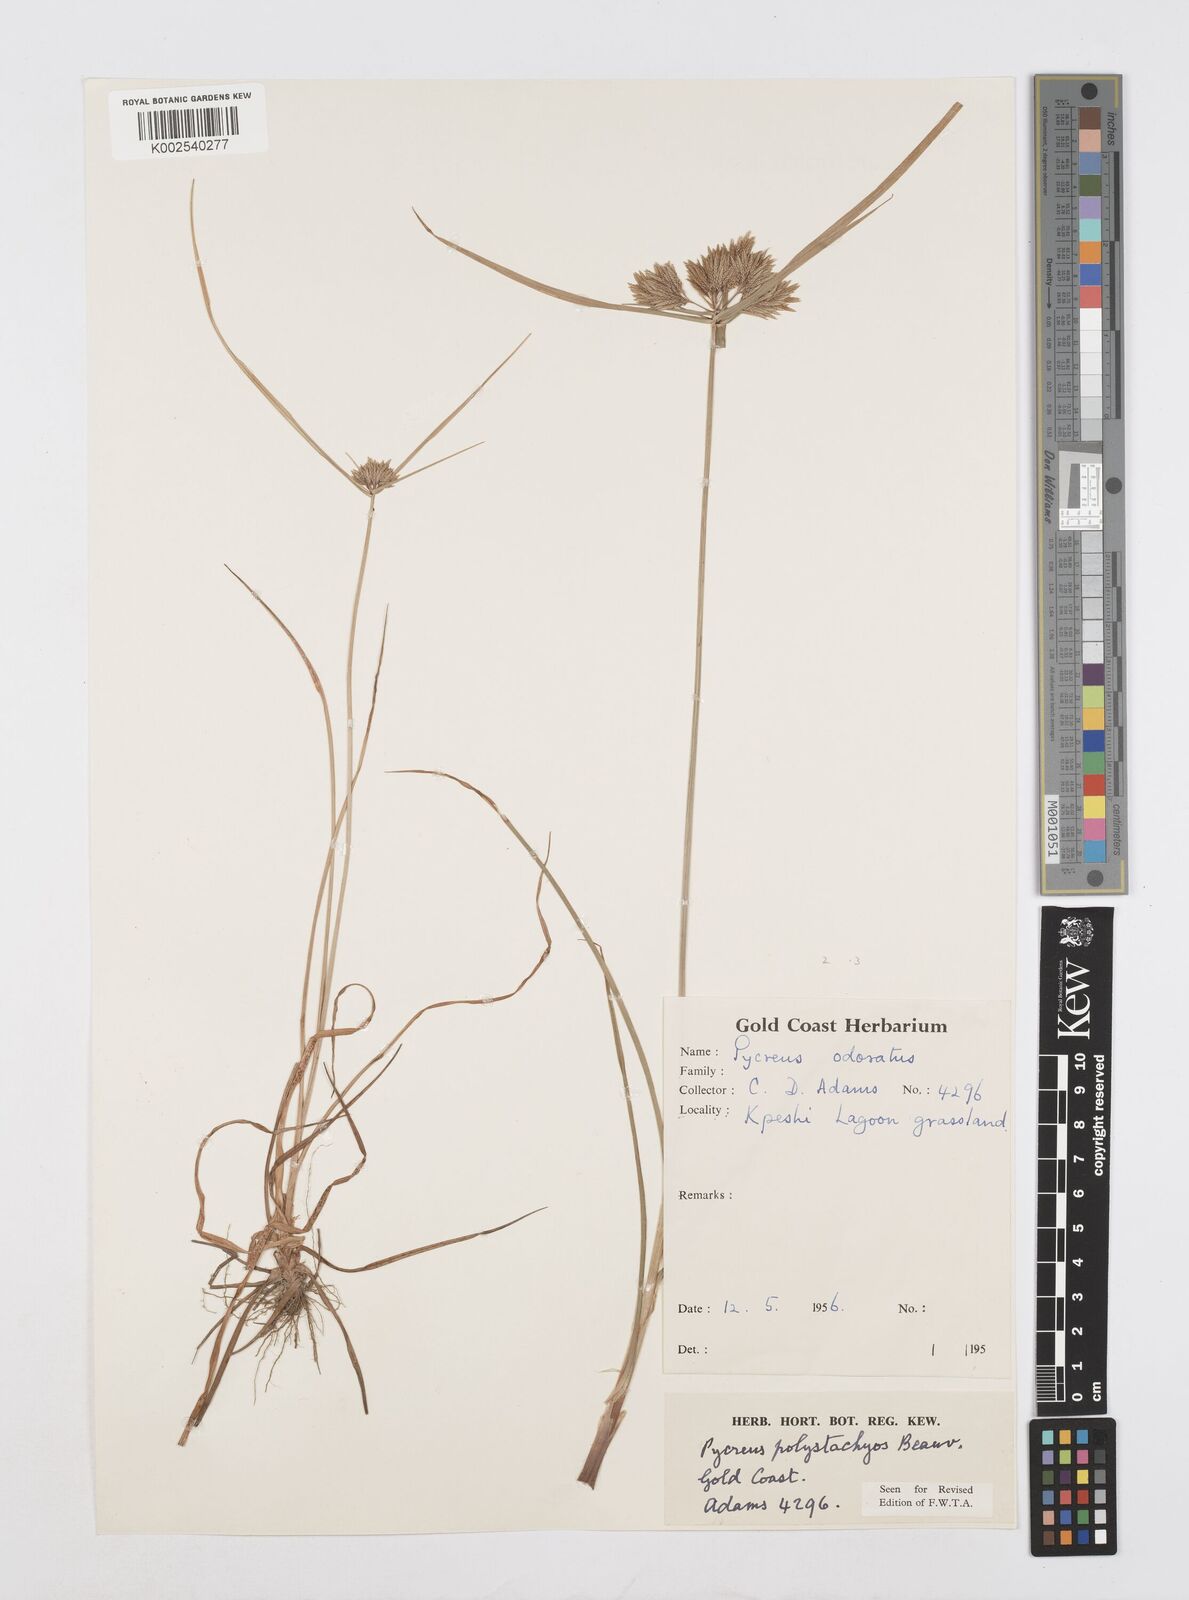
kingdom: Plantae
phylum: Tracheophyta
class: Liliopsida
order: Poales
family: Cyperaceae
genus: Cyperus
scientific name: Cyperus polystachyos
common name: Bunchy flat sedge
